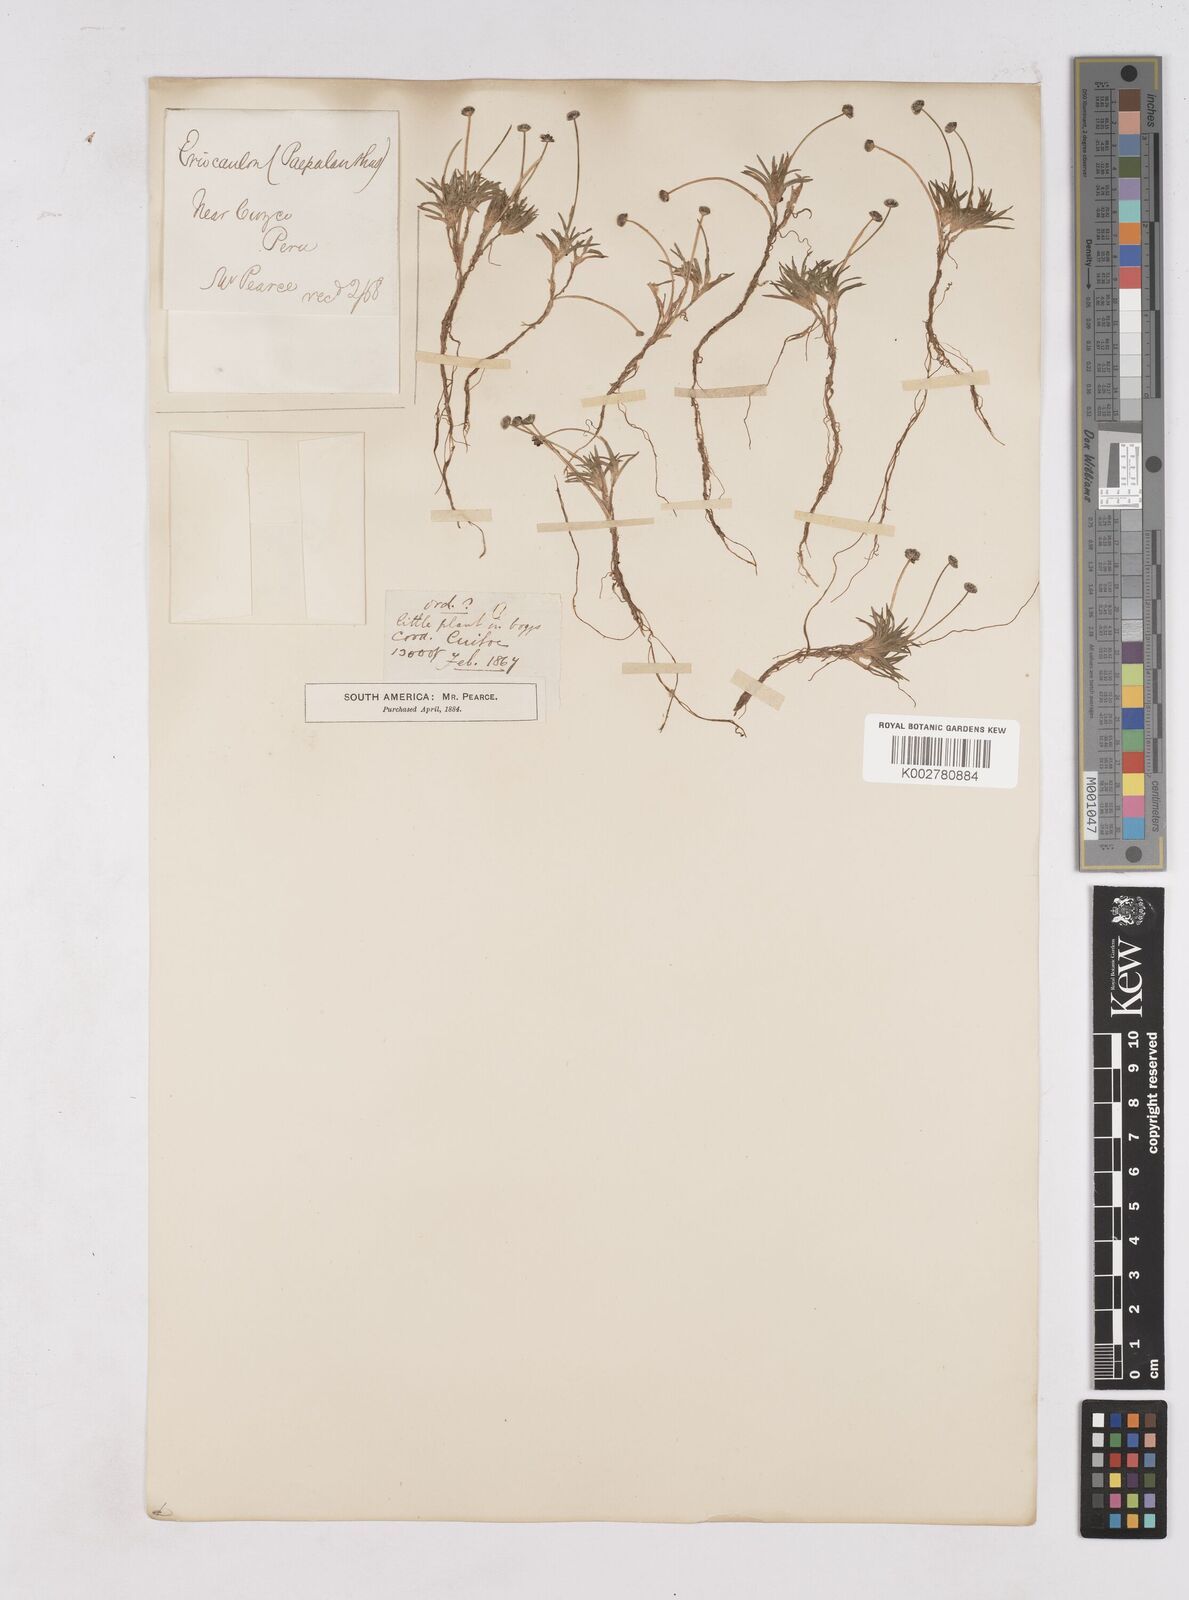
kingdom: Plantae
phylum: Tracheophyta
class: Liliopsida
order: Poales
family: Eriocaulaceae
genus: Paepalanthus
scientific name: Paepalanthus
